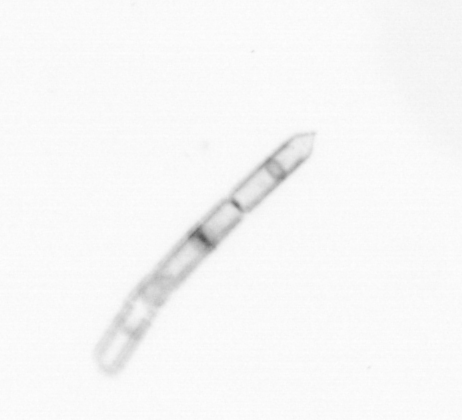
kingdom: Chromista
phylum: Ochrophyta
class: Bacillariophyceae
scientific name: Bacillariophyceae
